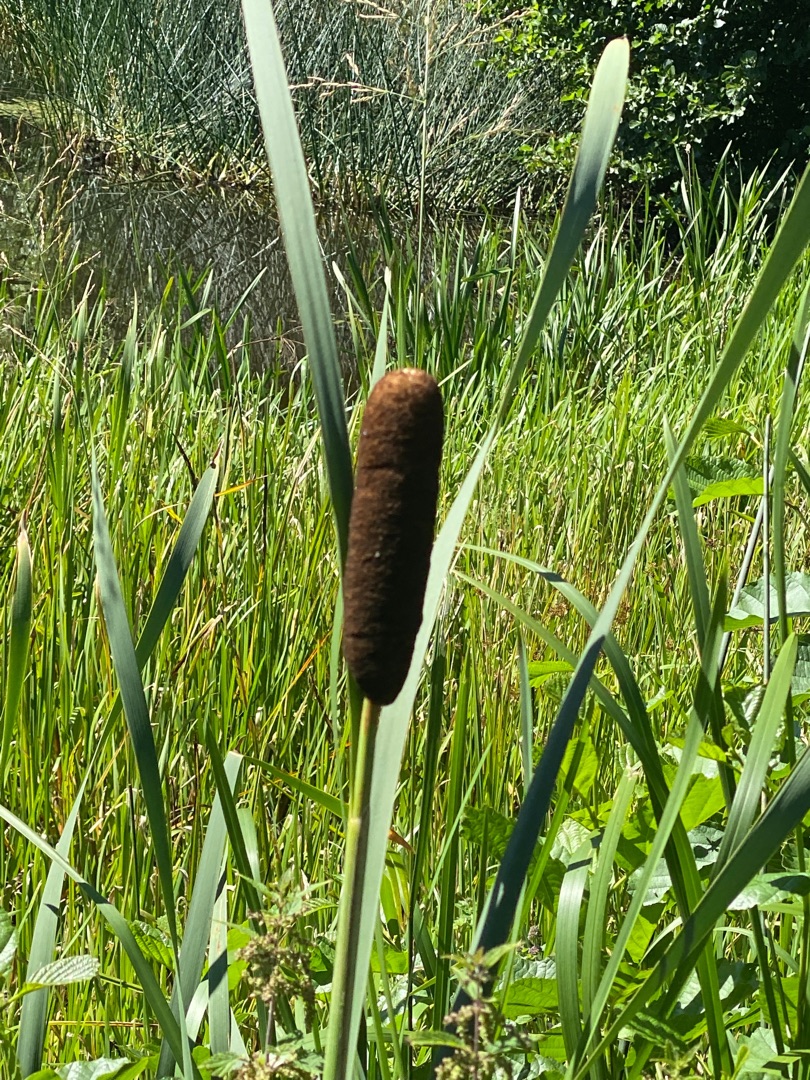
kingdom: Plantae
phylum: Tracheophyta
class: Liliopsida
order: Poales
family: Typhaceae
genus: Typha
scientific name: Typha latifolia
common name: Bredbladet dunhammer
